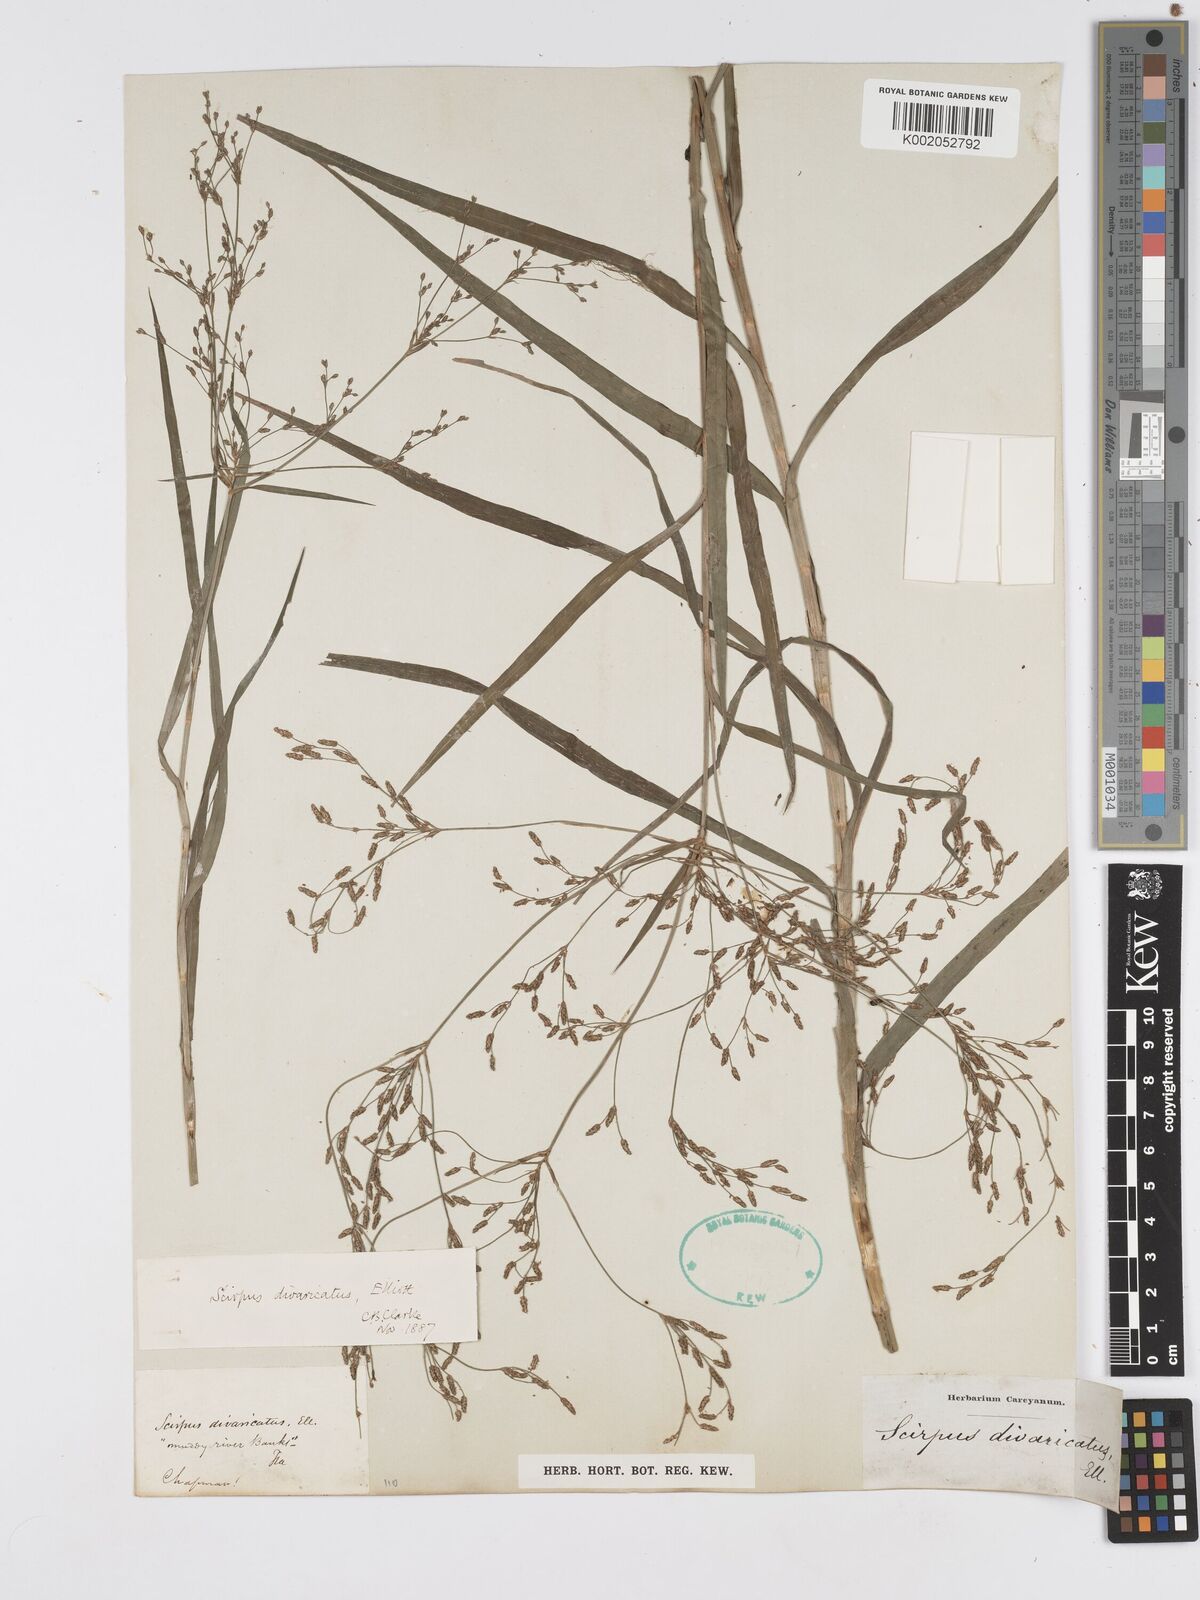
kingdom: Plantae
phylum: Tracheophyta
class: Liliopsida
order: Poales
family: Cyperaceae
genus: Scirpus
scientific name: Scirpus divaricatus
